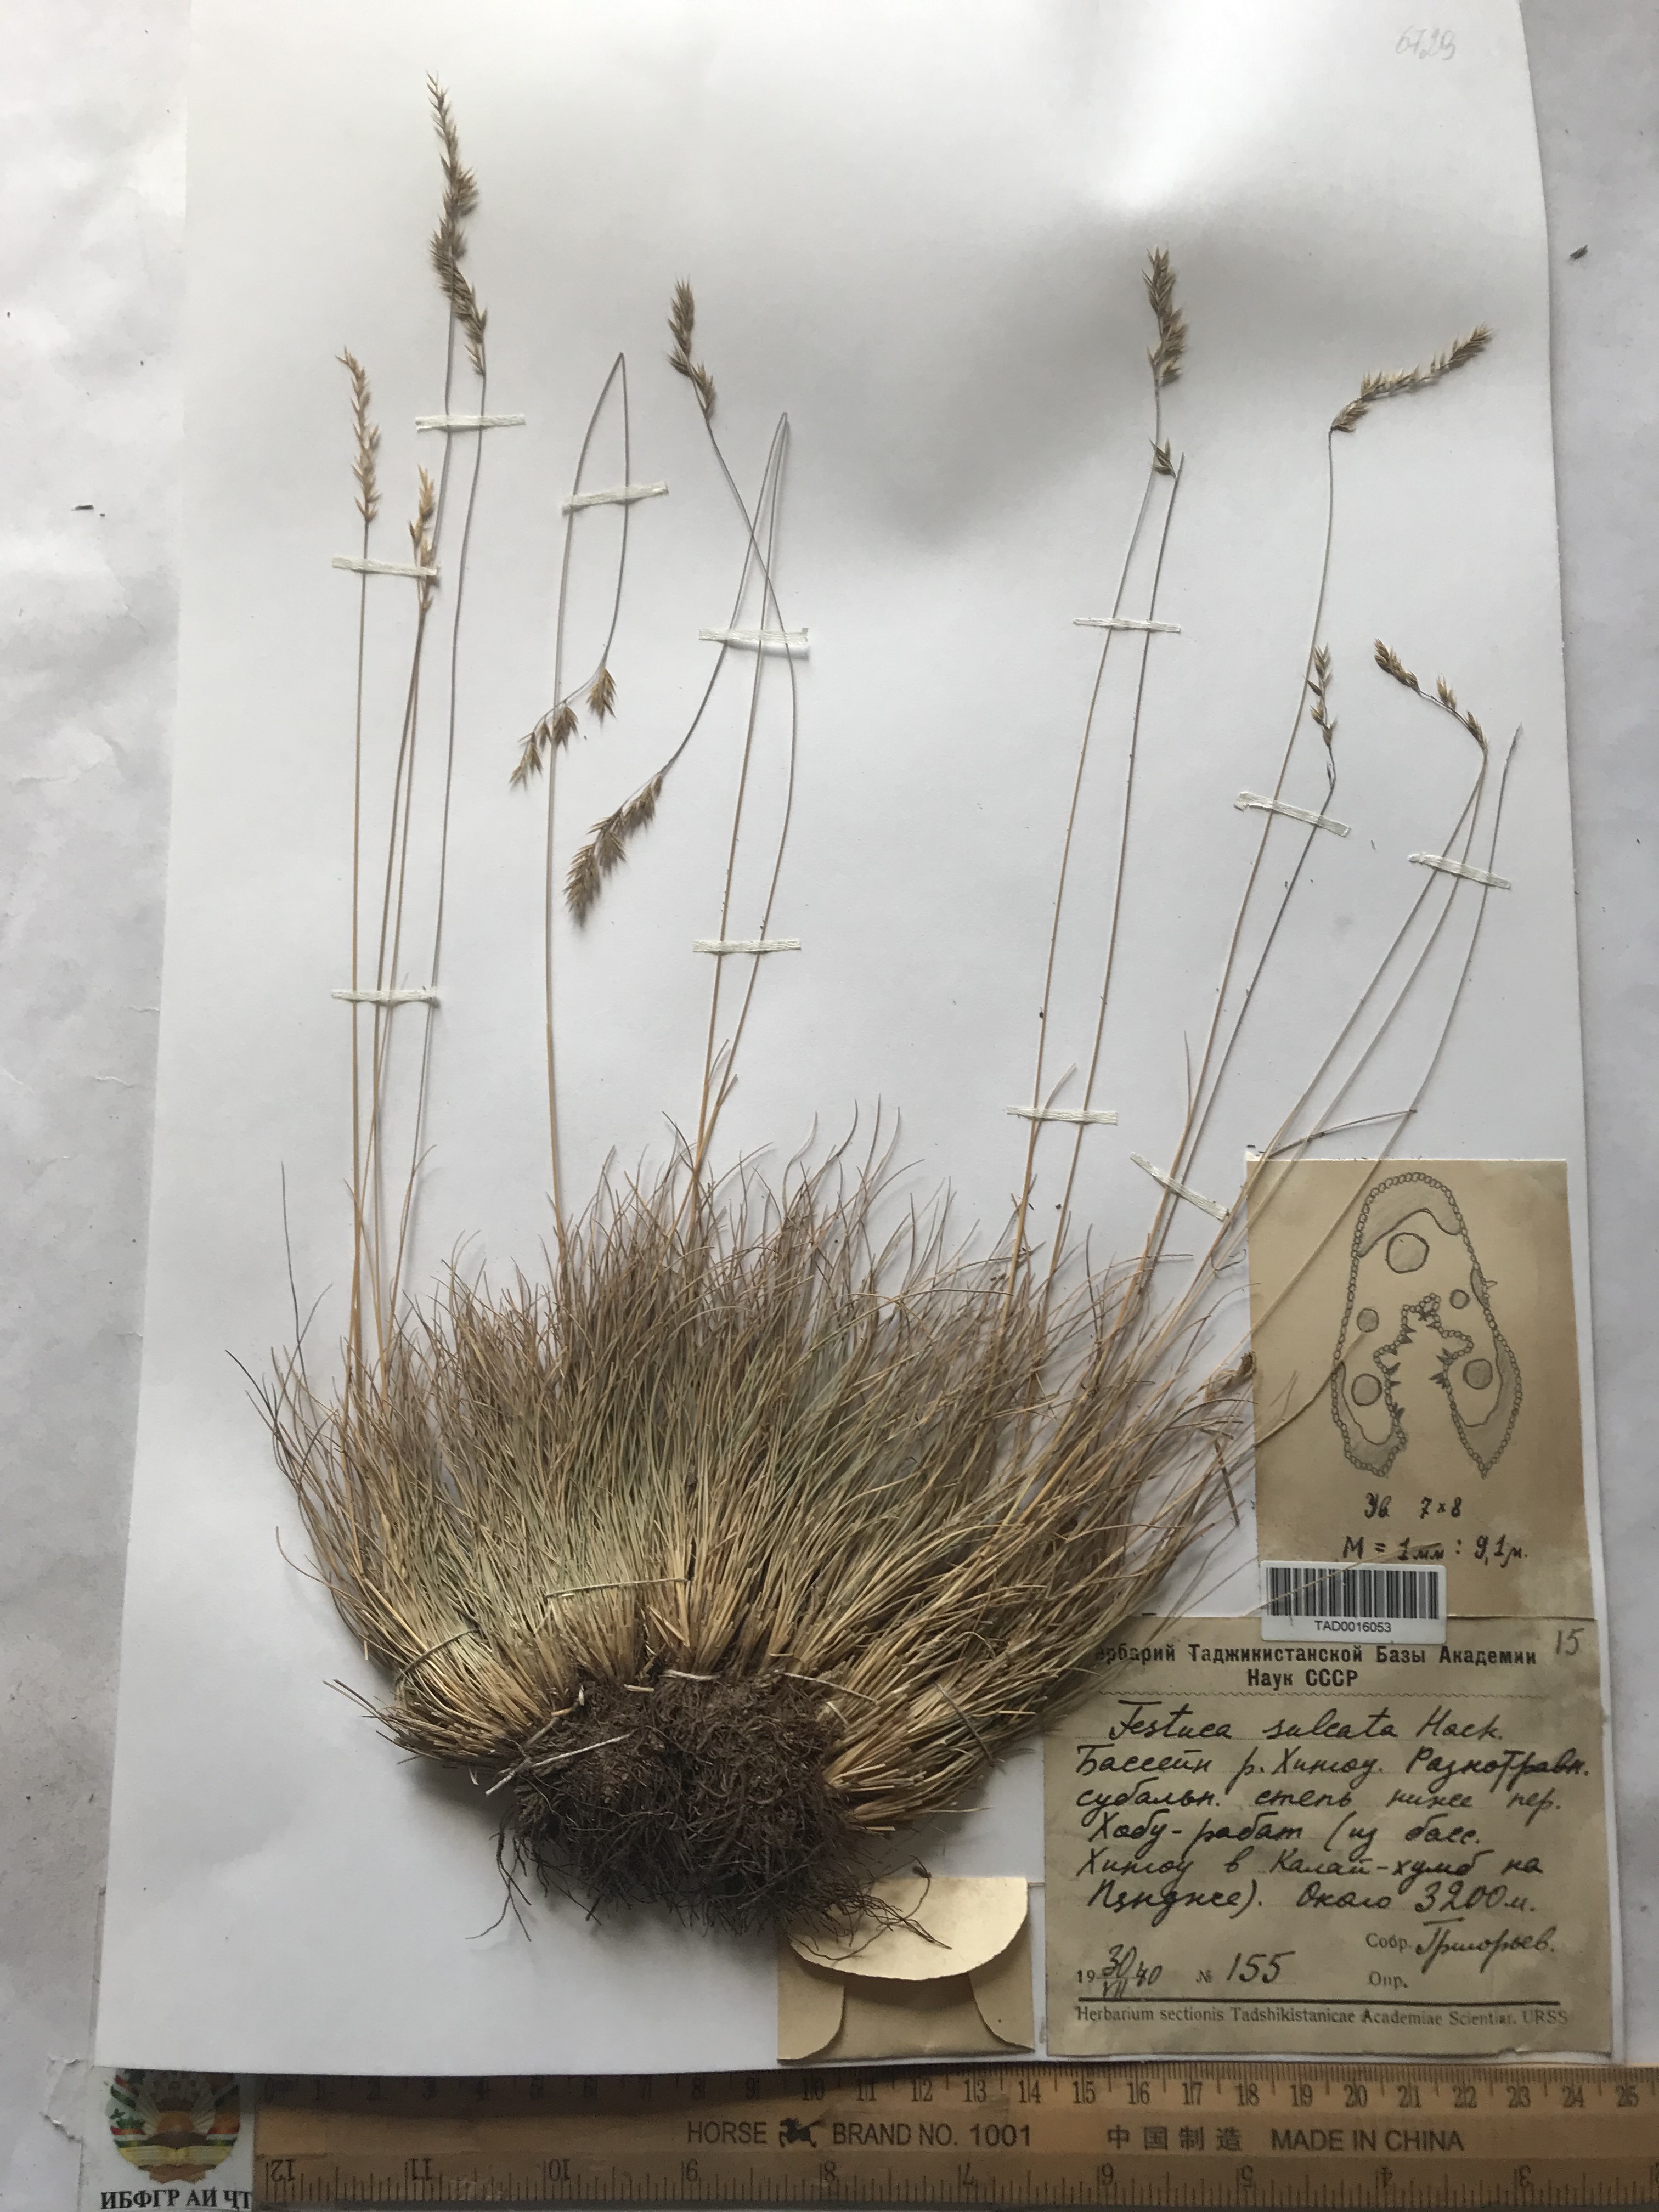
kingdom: Plantae
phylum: Tracheophyta
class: Liliopsida
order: Poales
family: Poaceae
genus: Festuca
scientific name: Festuca sulcata
